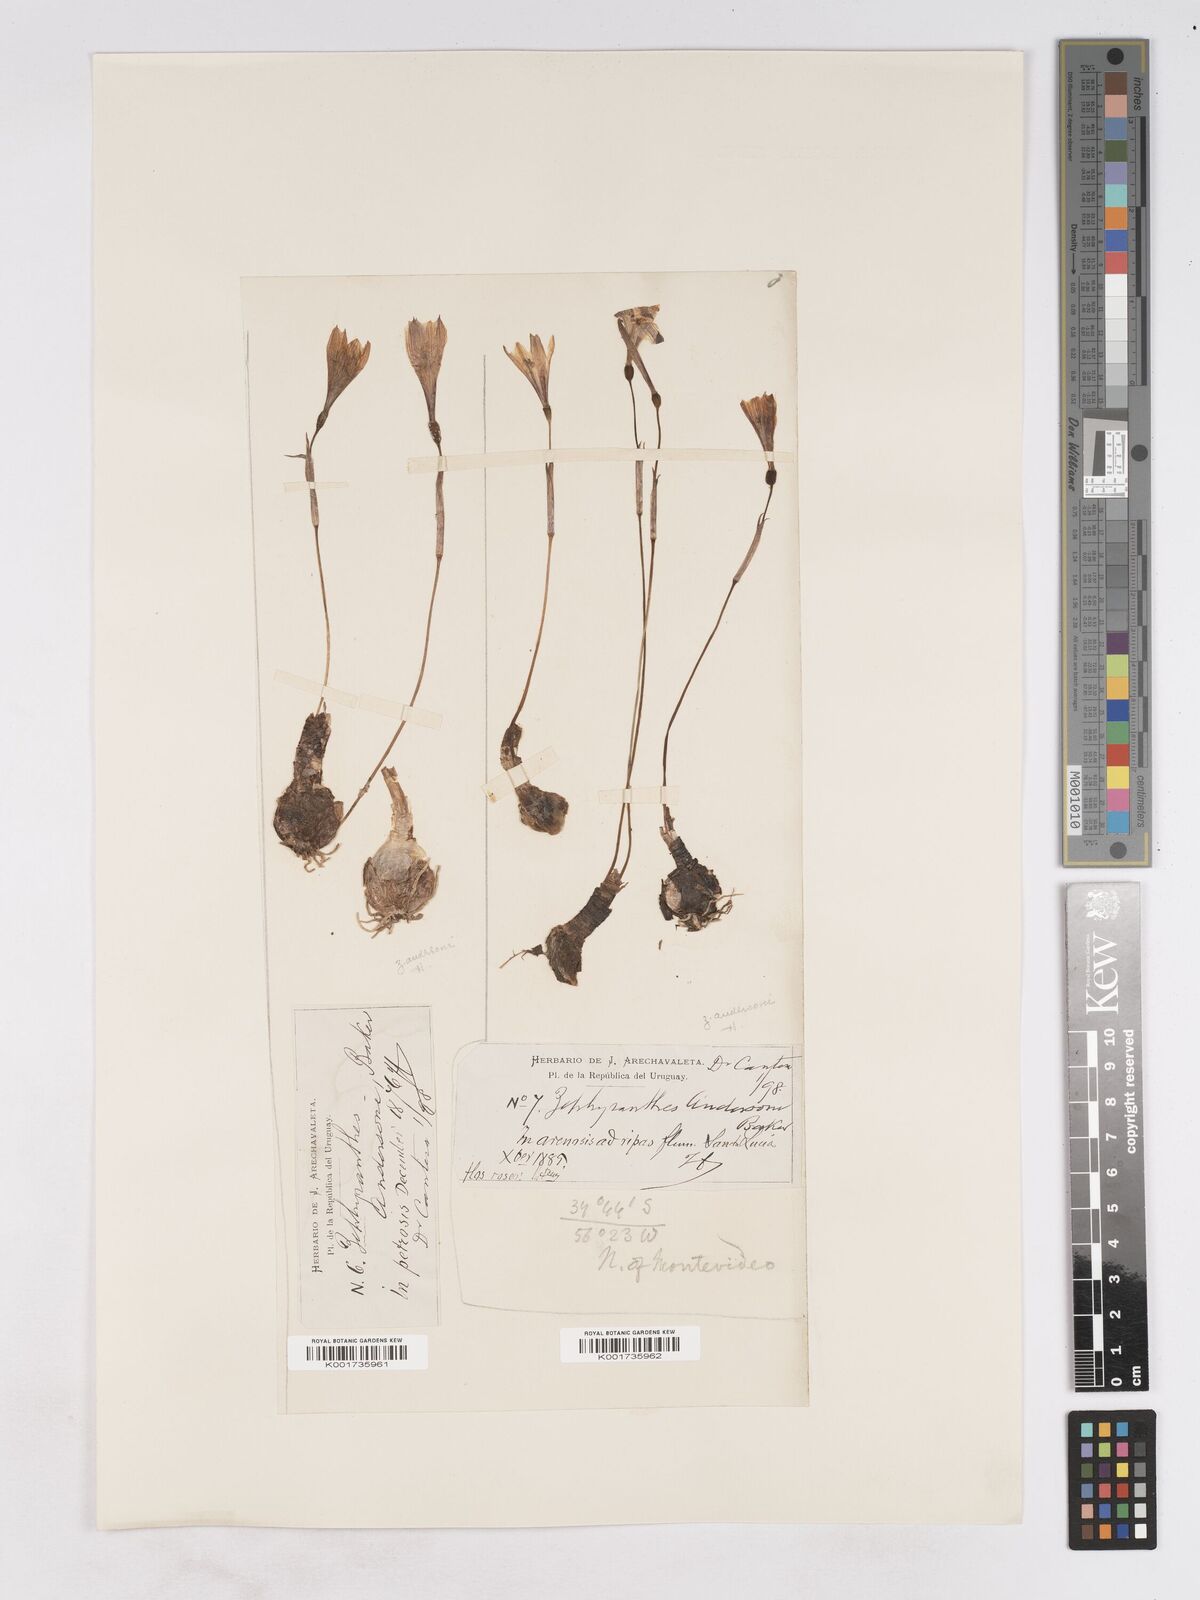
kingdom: Plantae
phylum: Tracheophyta
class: Liliopsida
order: Asparagales
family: Amaryllidaceae
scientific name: Amaryllidaceae
